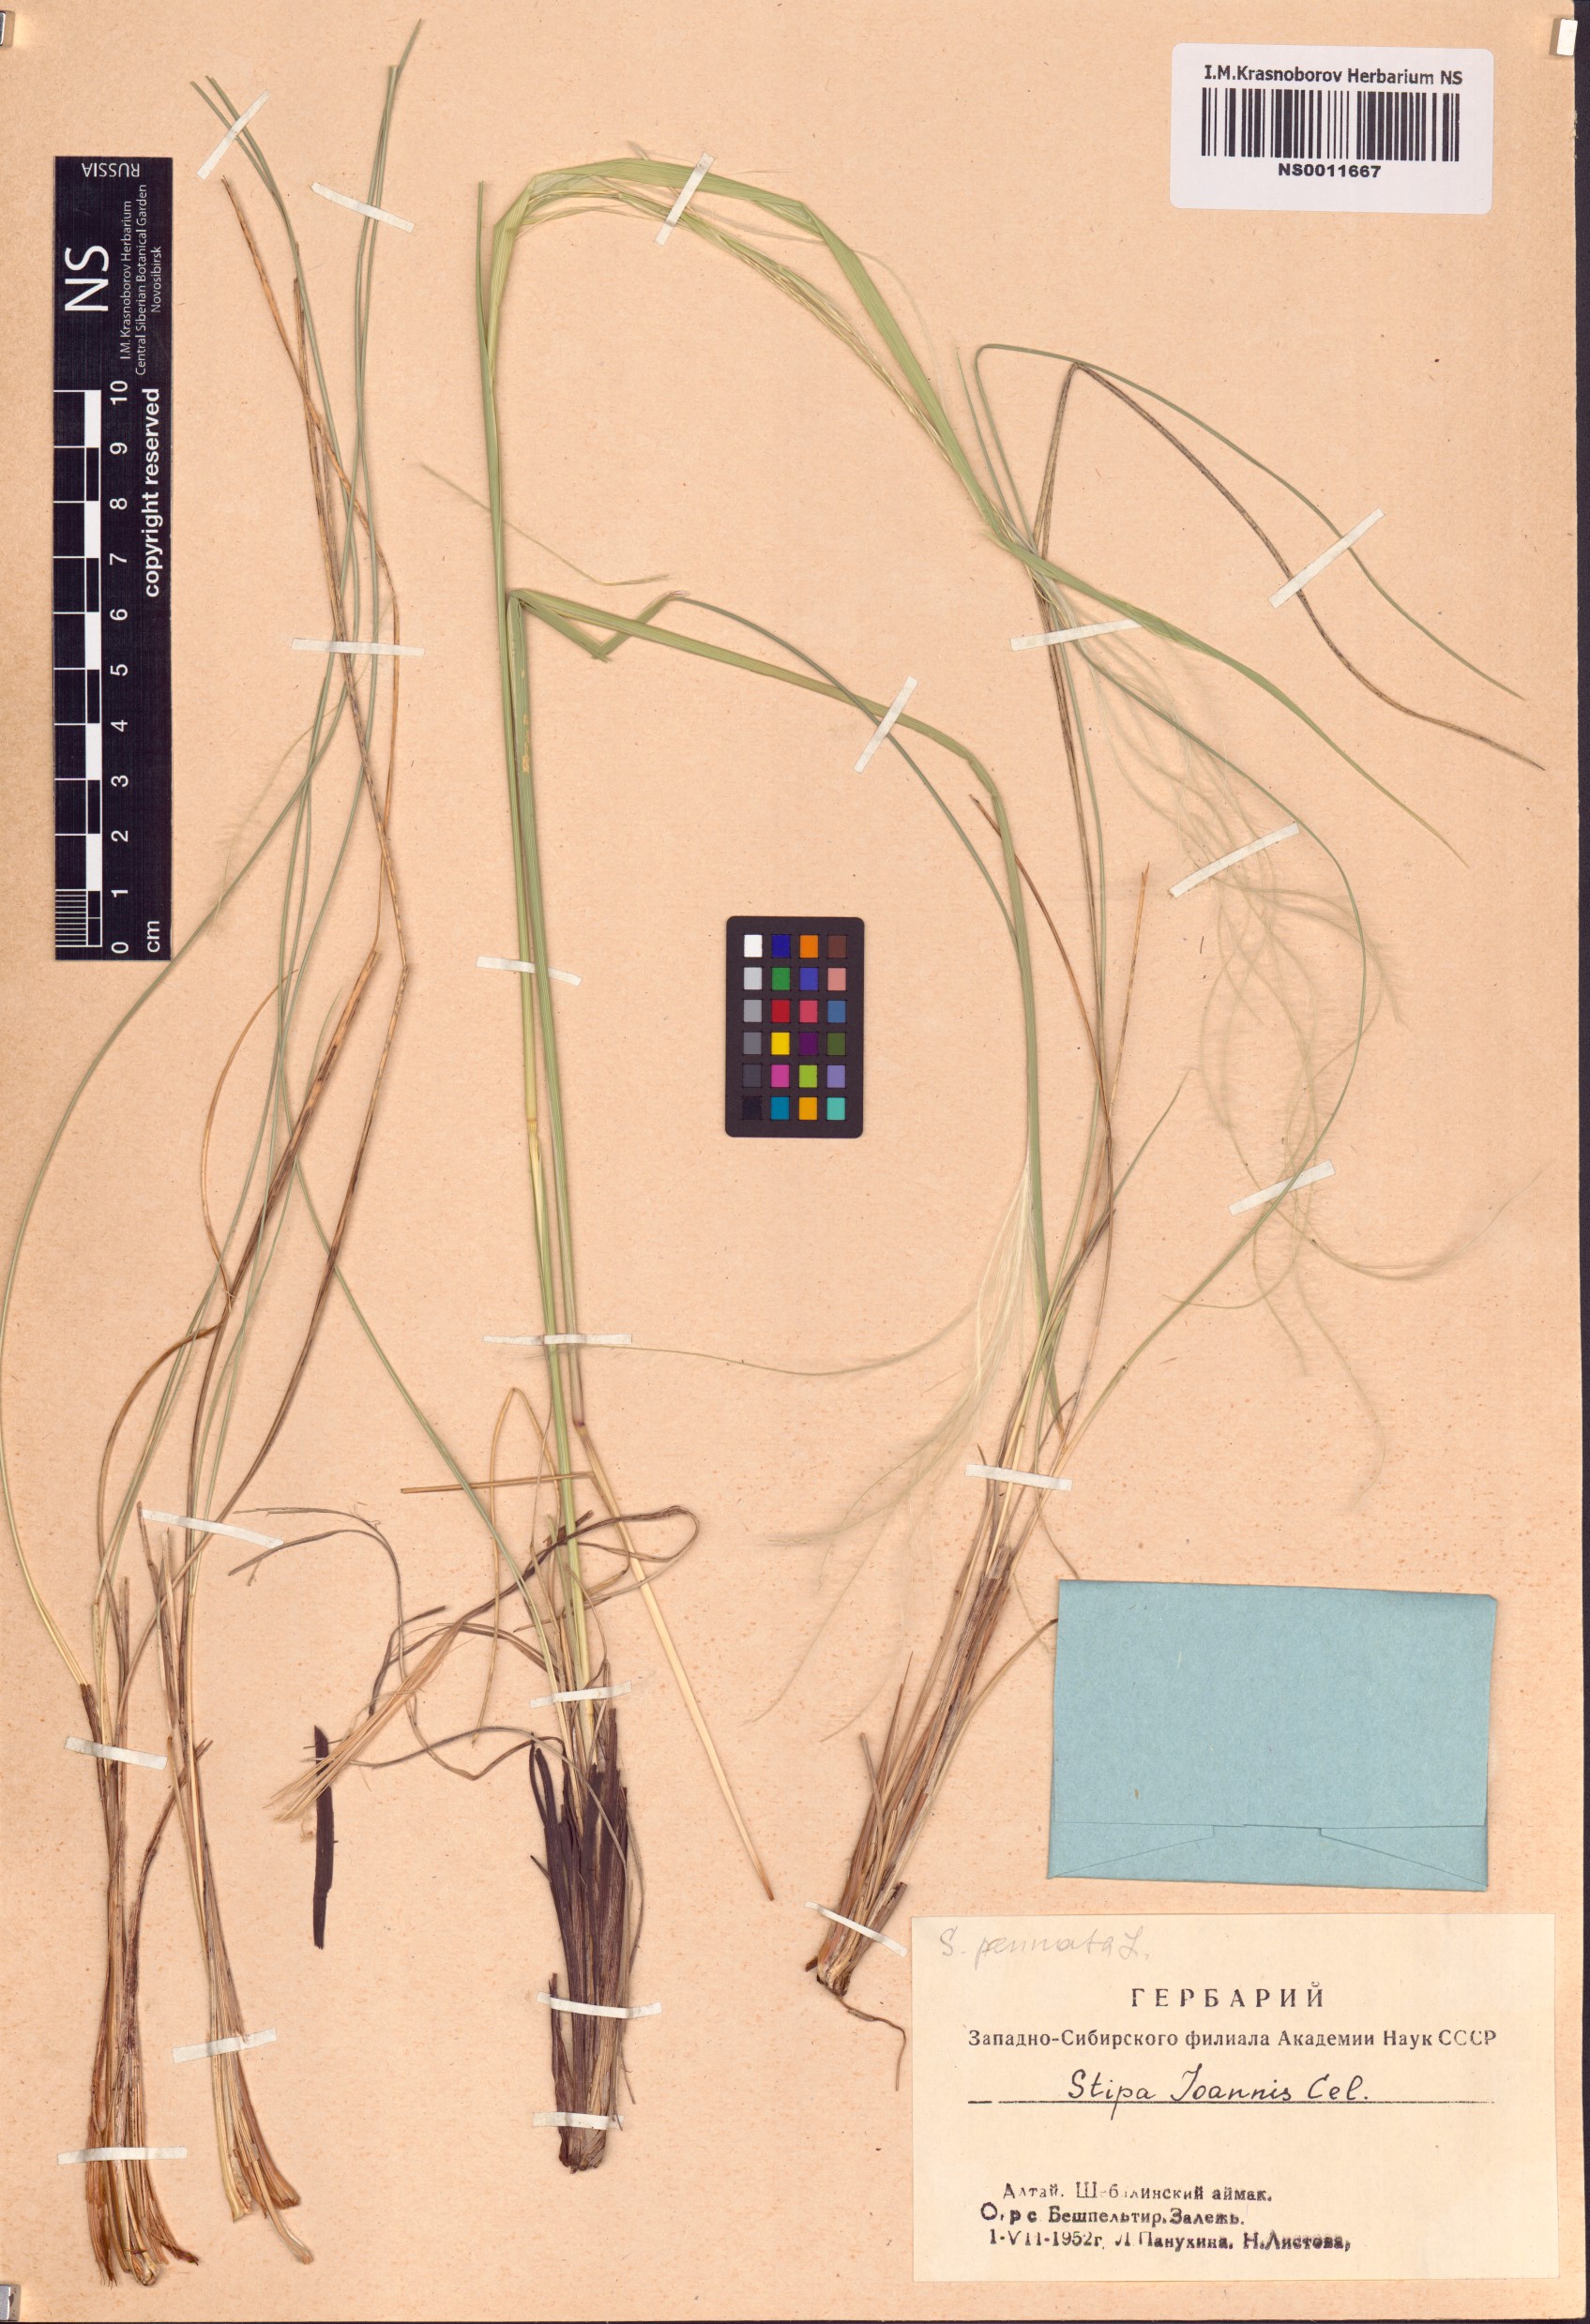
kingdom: Plantae
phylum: Tracheophyta
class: Liliopsida
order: Poales
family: Poaceae
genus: Stipa
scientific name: Stipa pennata
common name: European feather grass
